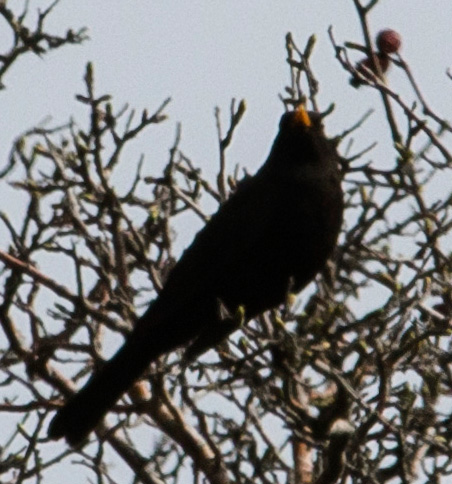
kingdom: Animalia
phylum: Chordata
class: Aves
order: Passeriformes
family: Turdidae
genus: Turdus
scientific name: Turdus merula
